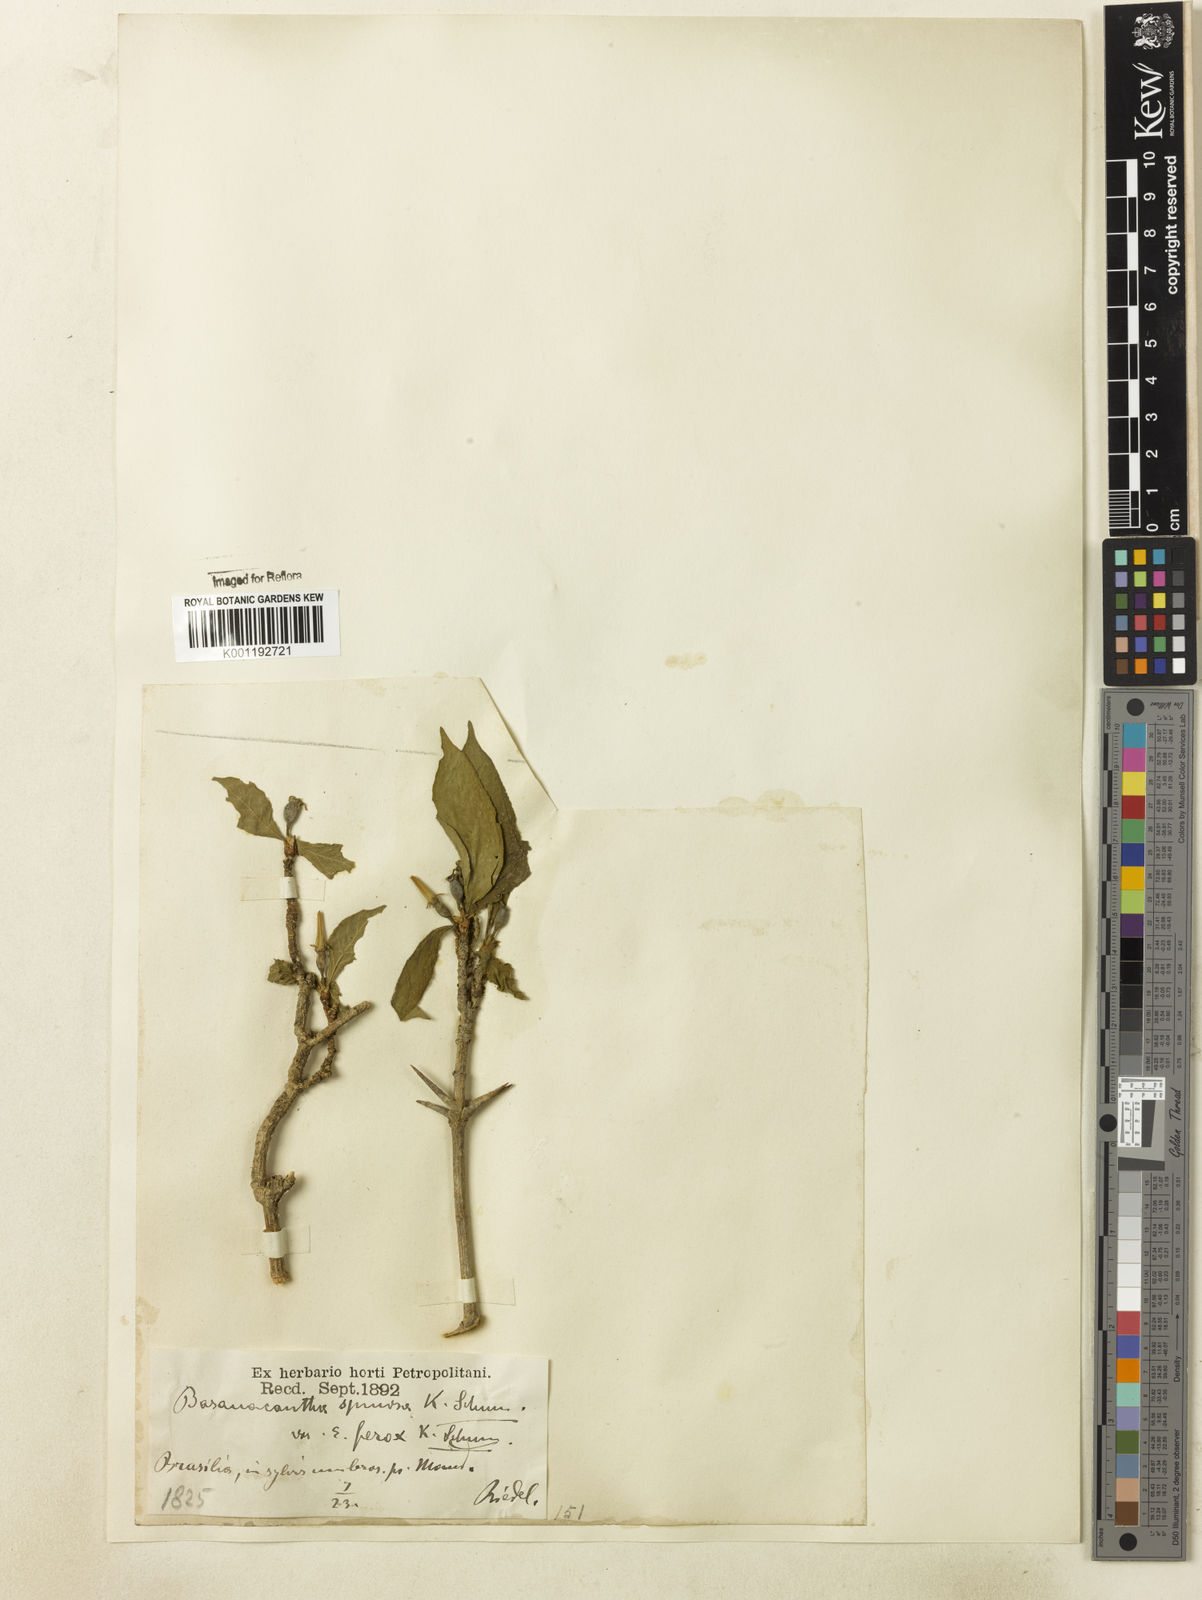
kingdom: Plantae
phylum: Tracheophyta
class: Magnoliopsida
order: Gentianales
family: Rubiaceae
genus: Randia
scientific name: Randia nitida
